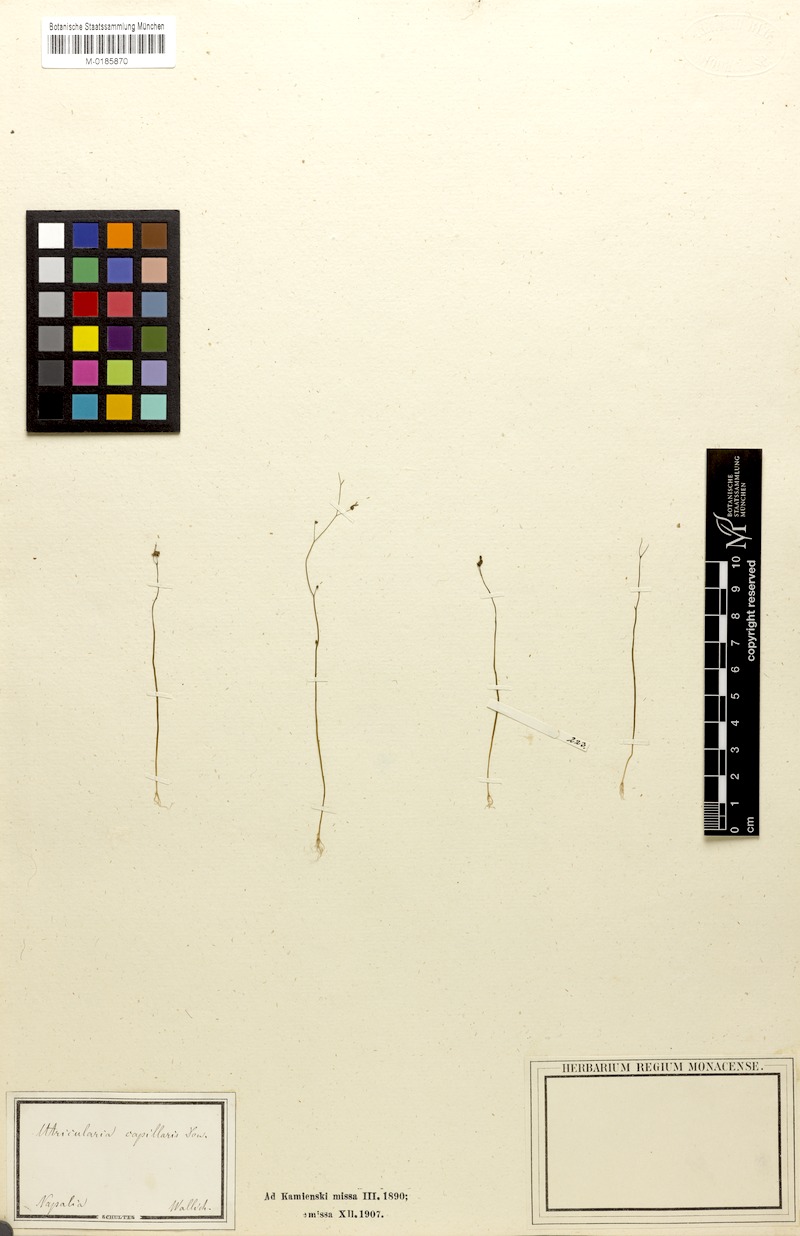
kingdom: Plantae
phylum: Tracheophyta
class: Magnoliopsida
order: Lamiales
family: Lentibulariaceae
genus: Utricularia
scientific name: Utricularia caerulea
